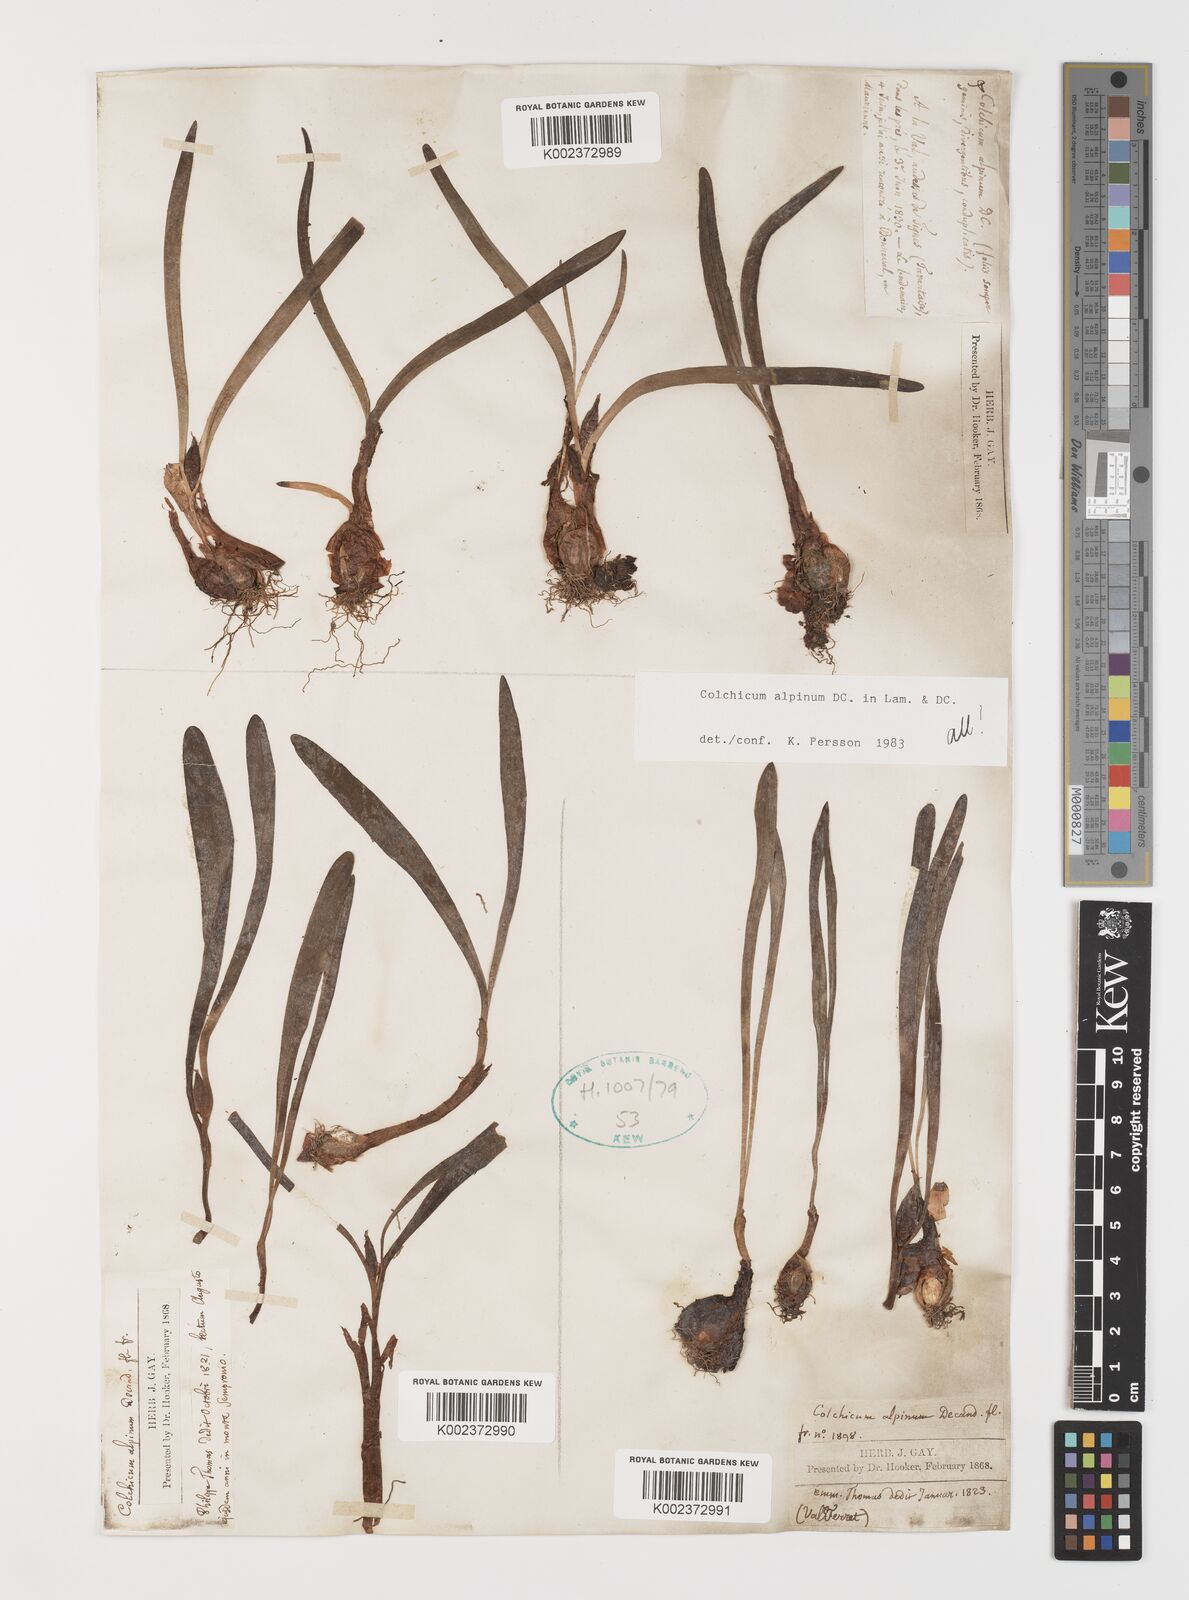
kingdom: Plantae
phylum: Tracheophyta
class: Liliopsida
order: Liliales
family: Colchicaceae
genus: Colchicum
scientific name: Colchicum alpinum
